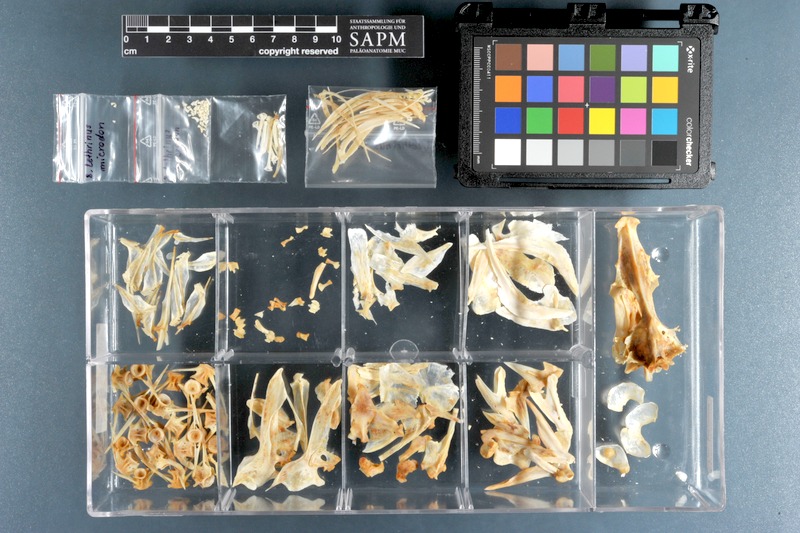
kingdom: Animalia
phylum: Chordata
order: Perciformes
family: Lethrinidae
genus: Lethrinus
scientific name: Lethrinus microdon
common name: Smalltooth emperor
